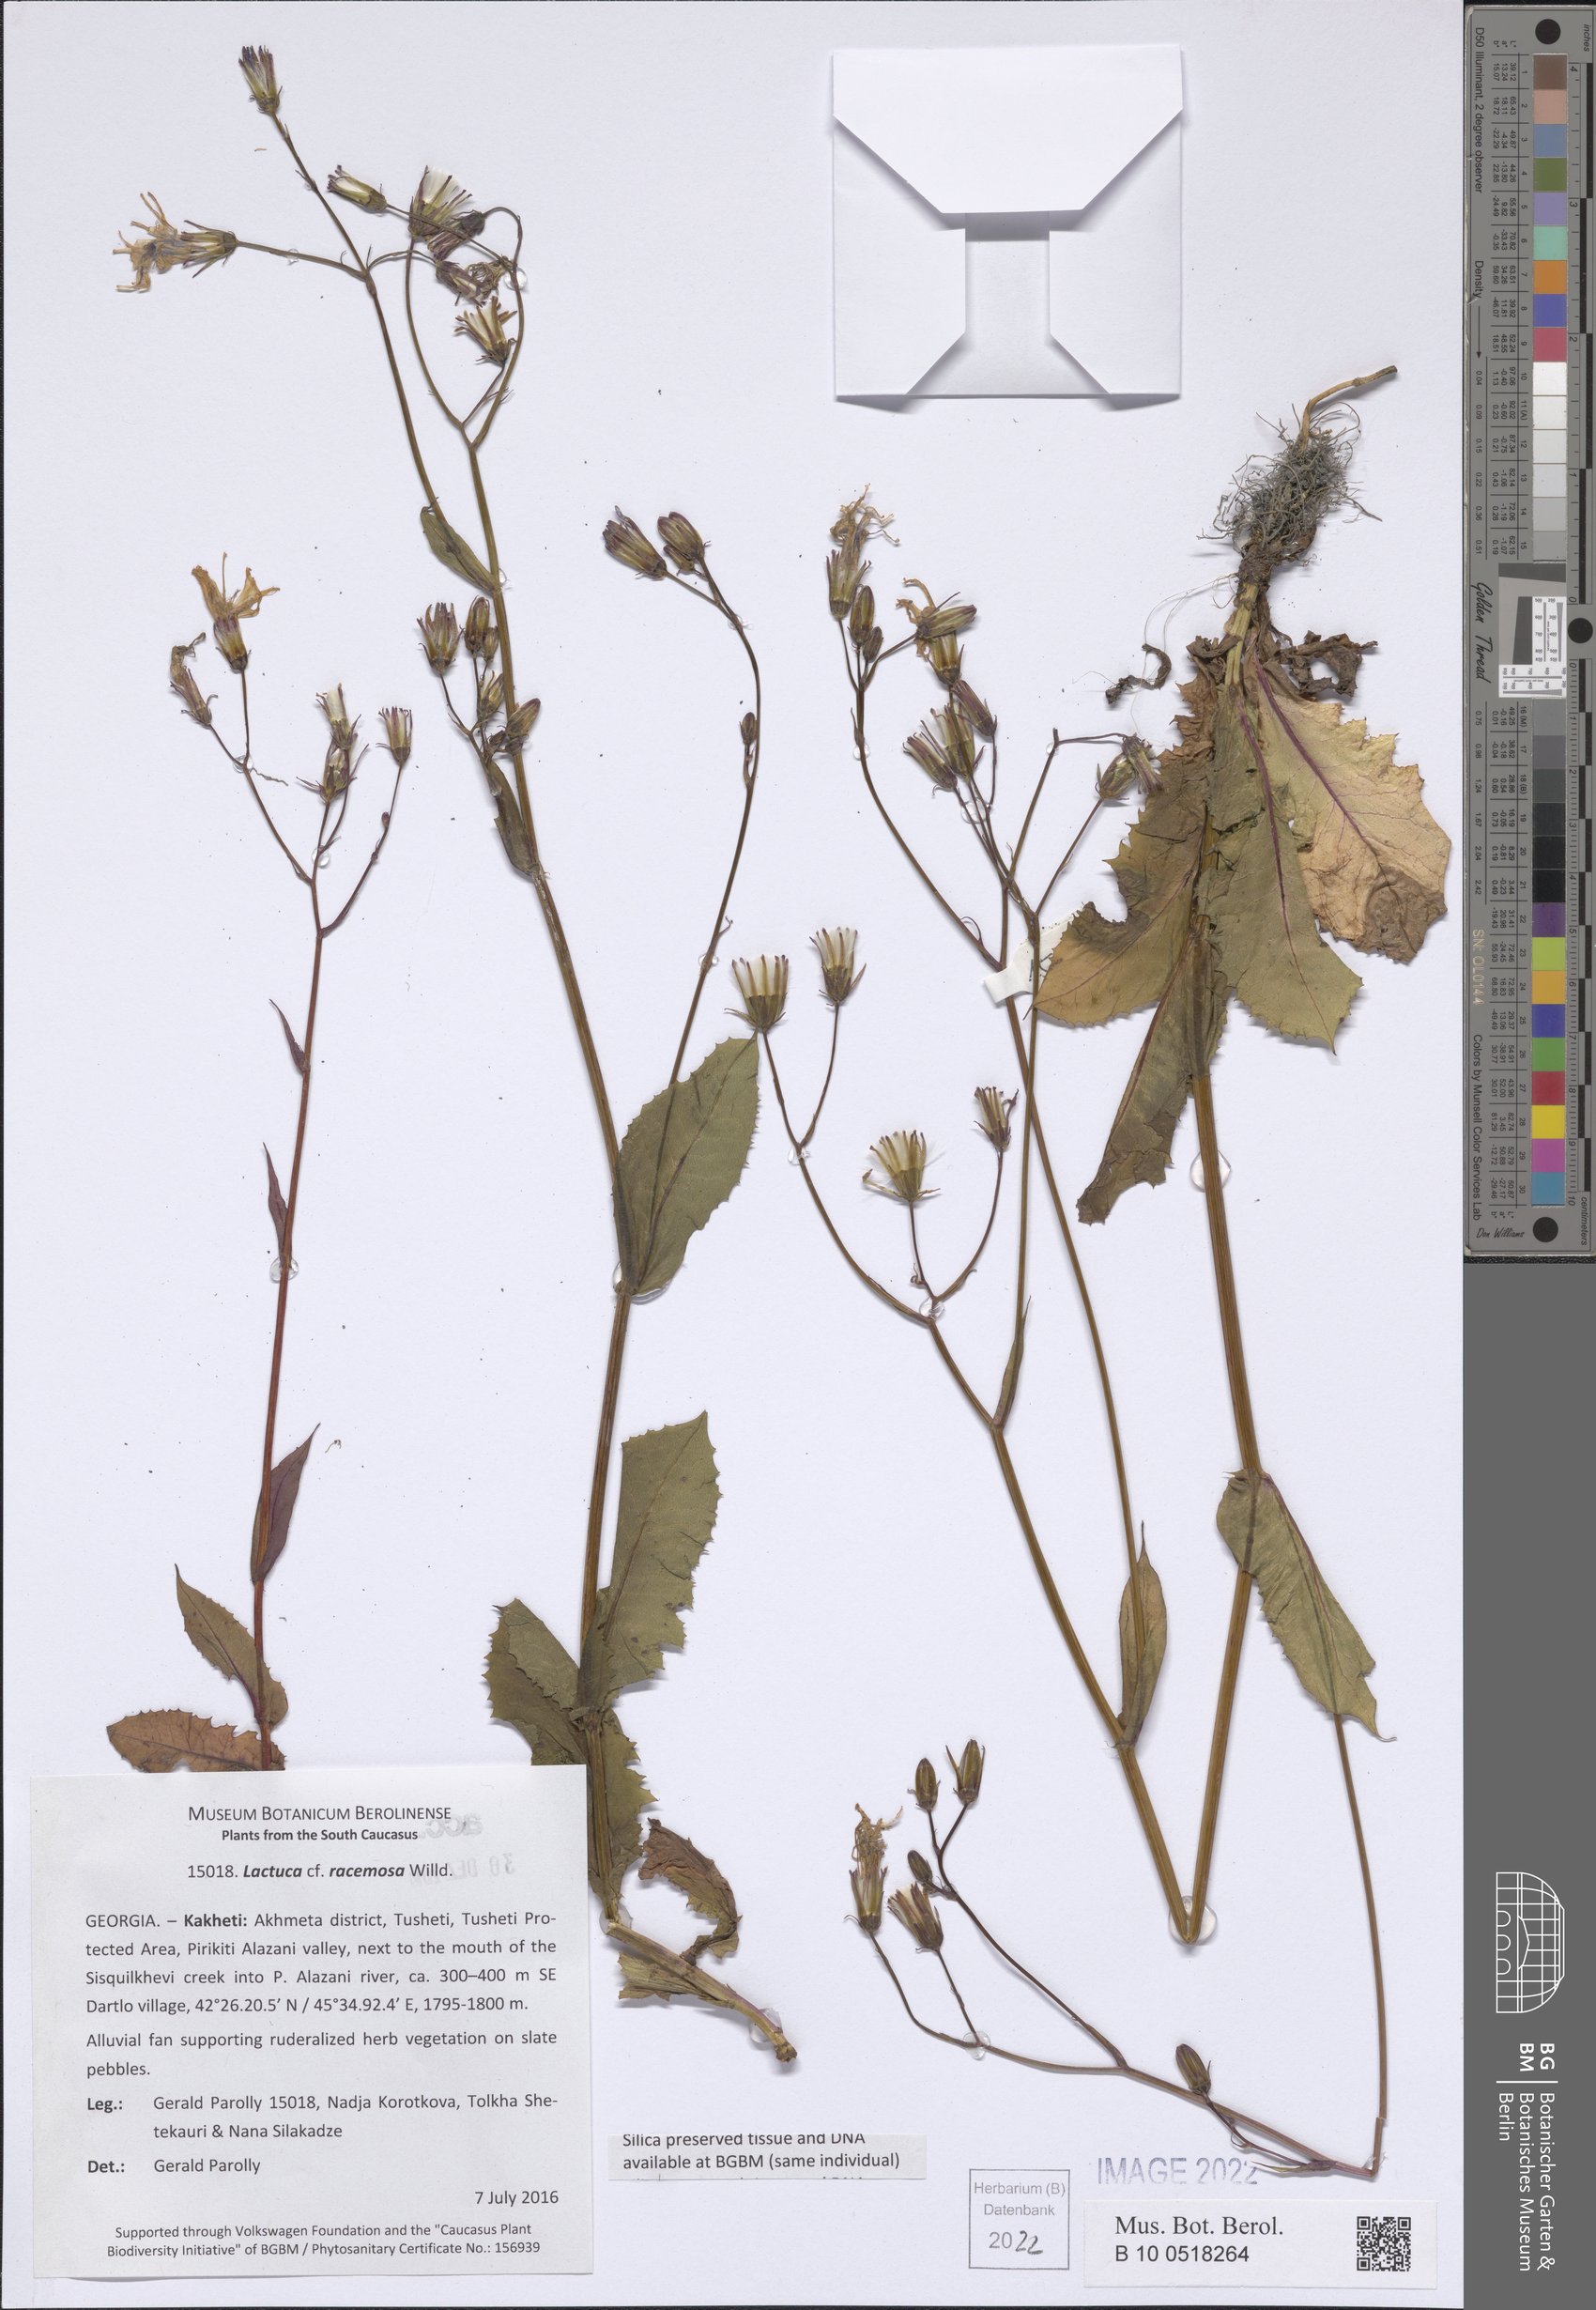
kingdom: Plantae
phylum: Tracheophyta
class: Magnoliopsida
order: Asterales
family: Asteraceae
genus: Lactuca
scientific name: Lactuca racemosa
